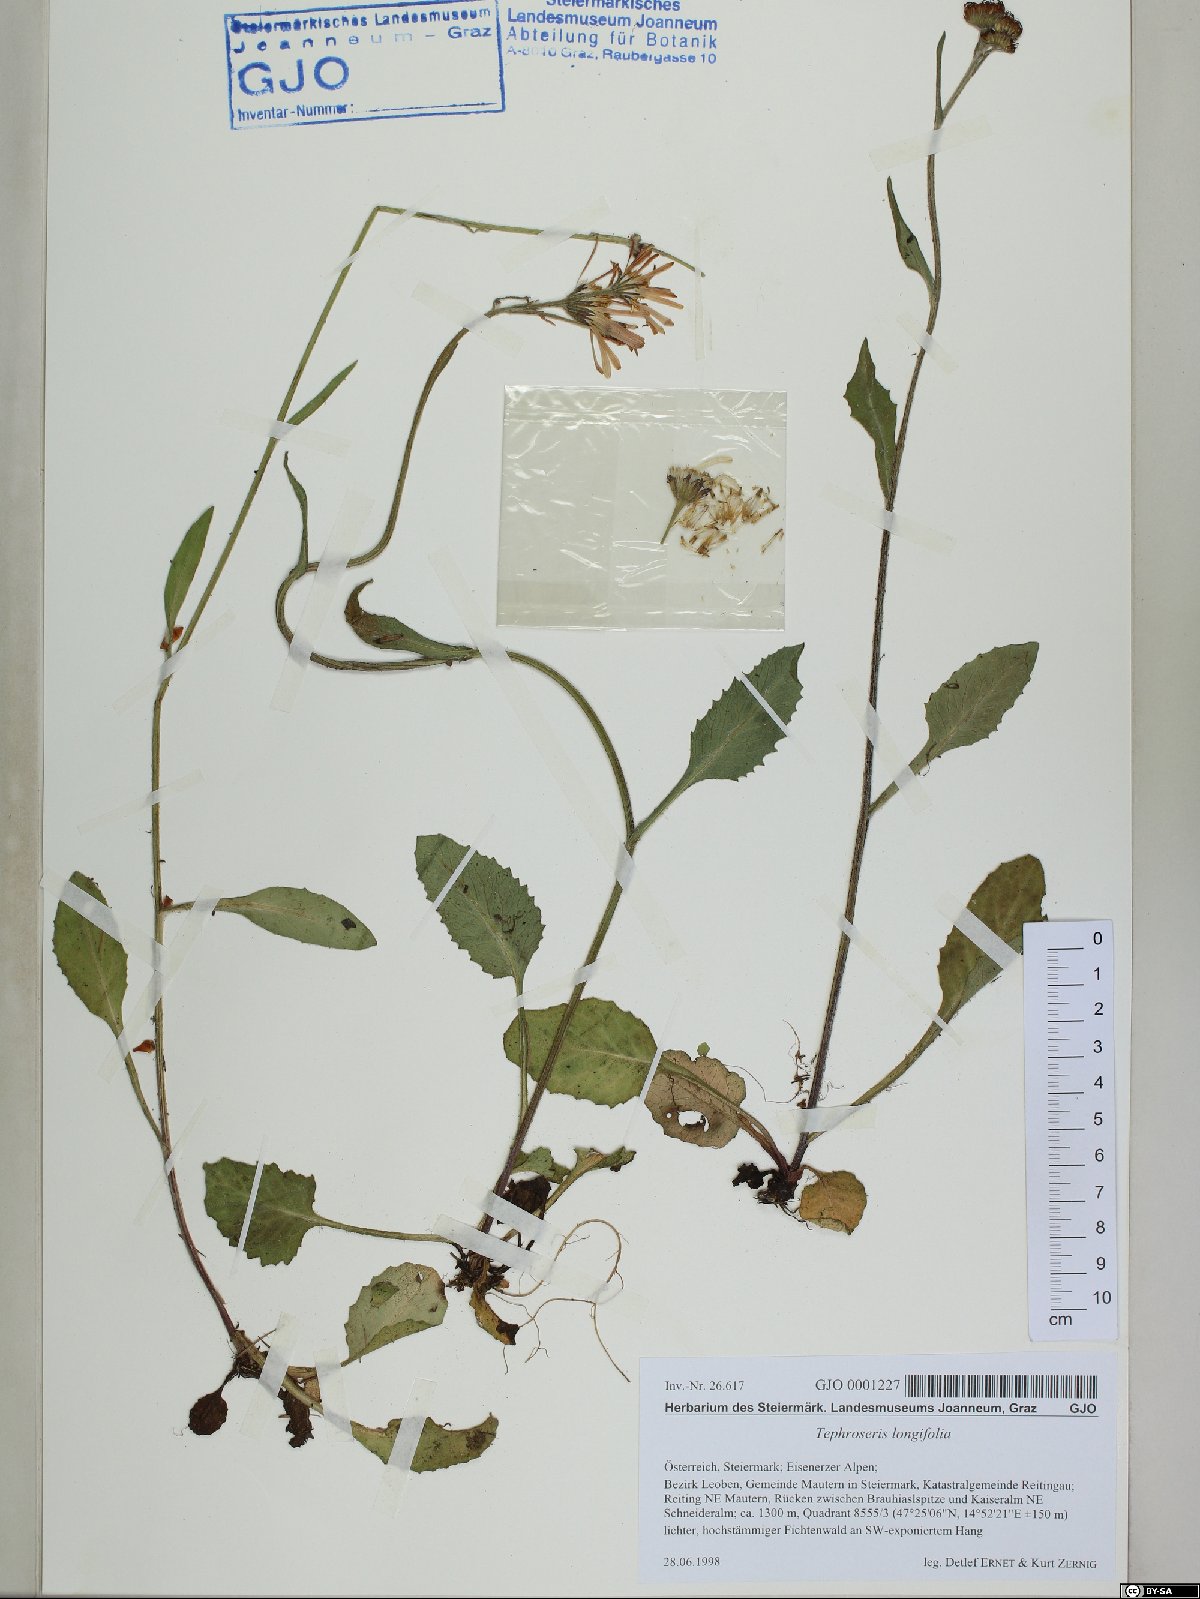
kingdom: Plantae
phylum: Tracheophyta
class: Magnoliopsida
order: Asterales
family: Asteraceae
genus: Tephroseris
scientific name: Tephroseris longifolia
